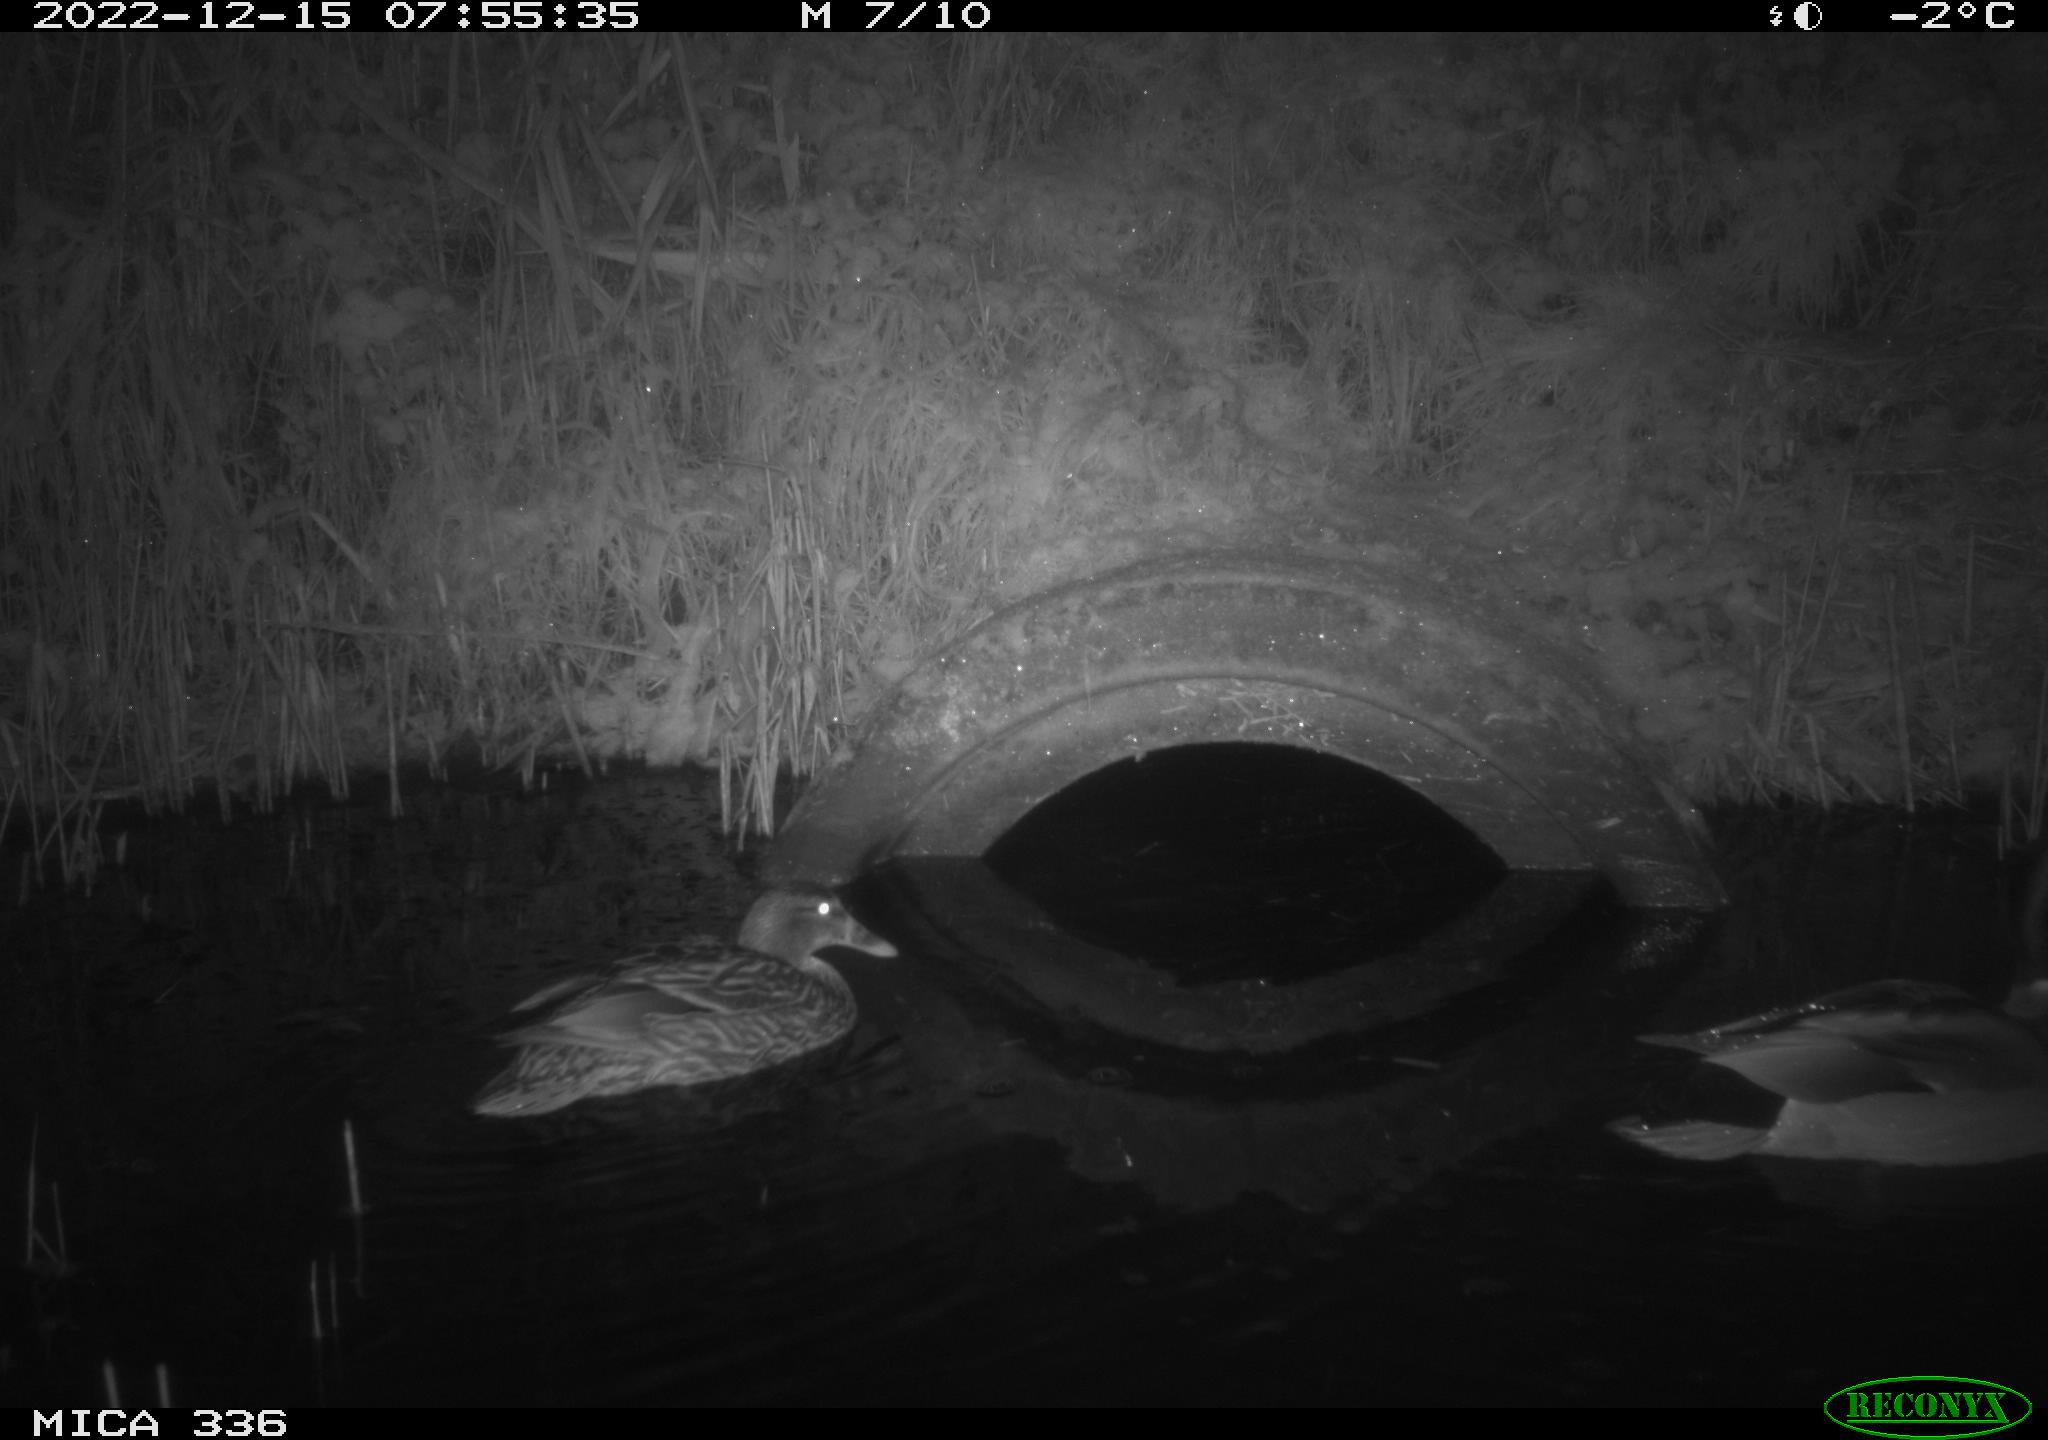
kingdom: Animalia
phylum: Chordata
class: Aves
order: Anseriformes
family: Anatidae
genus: Anas
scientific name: Anas
